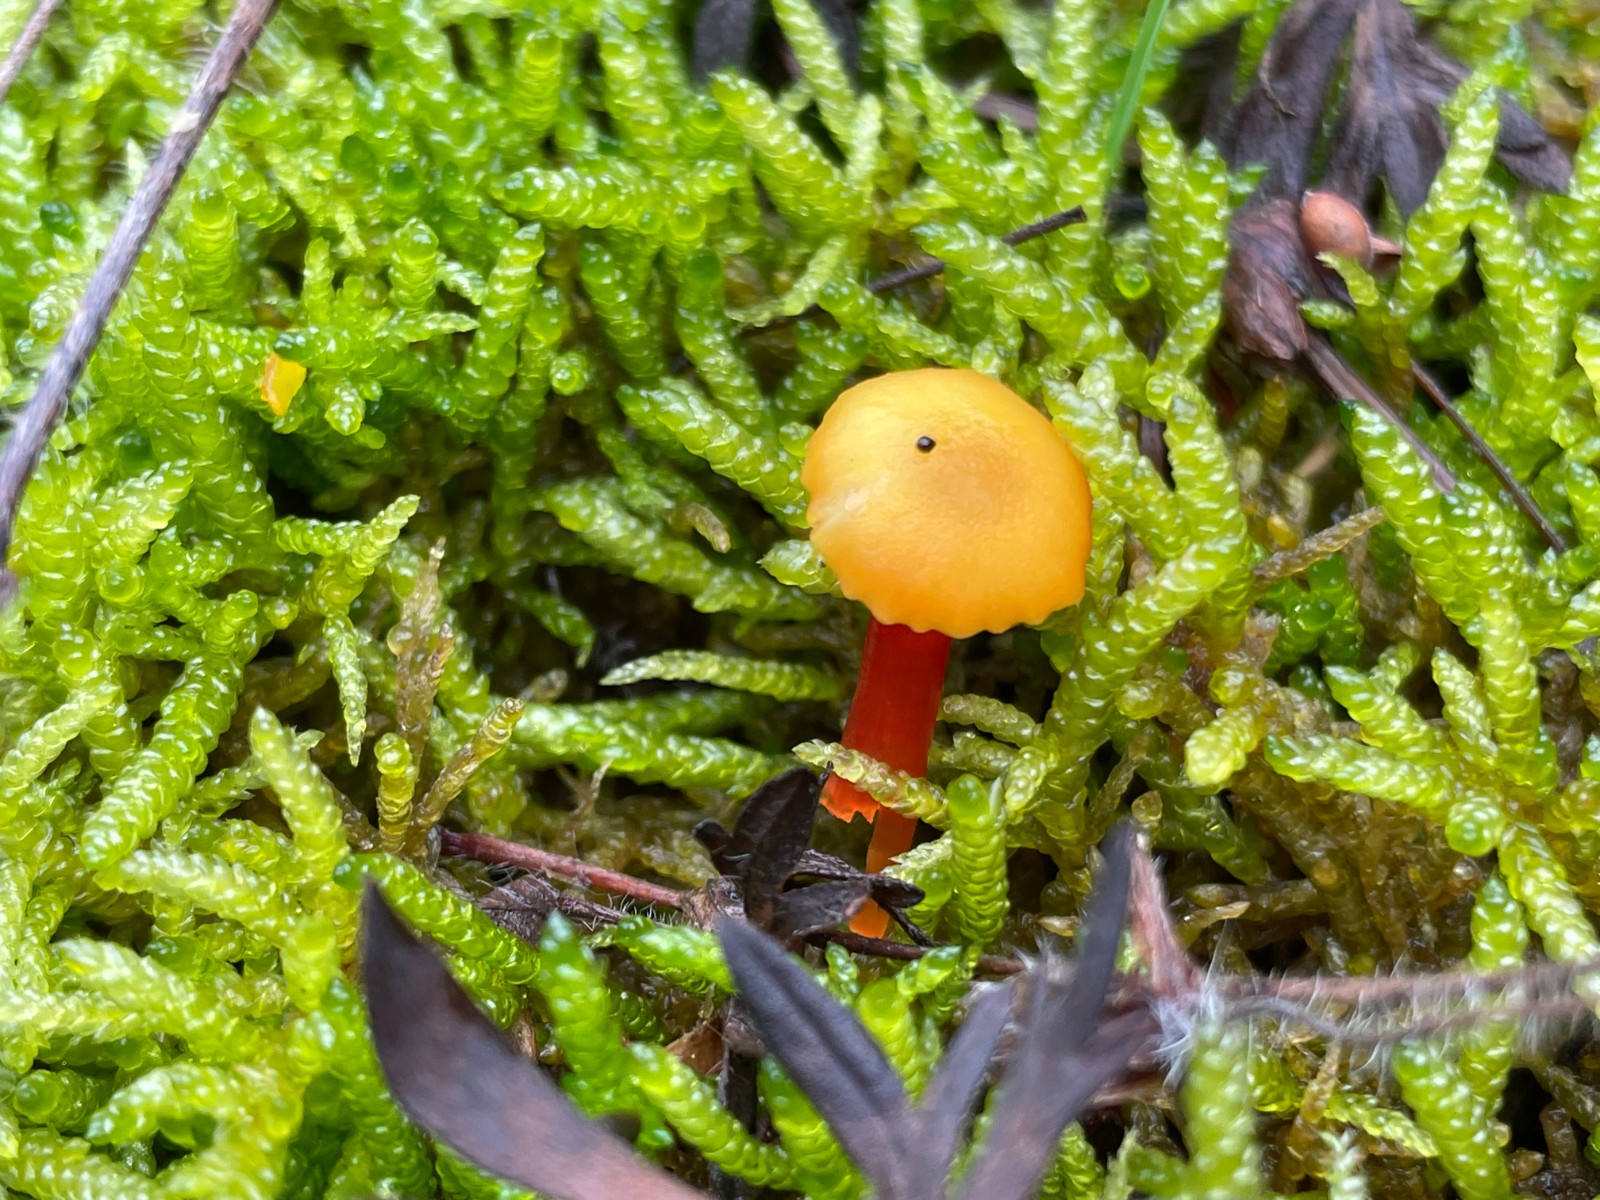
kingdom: Fungi
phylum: Basidiomycota
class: Agaricomycetes
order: Agaricales
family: Hygrophoraceae
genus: Hygrocybe
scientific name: Hygrocybe insipida
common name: liden vokshat
